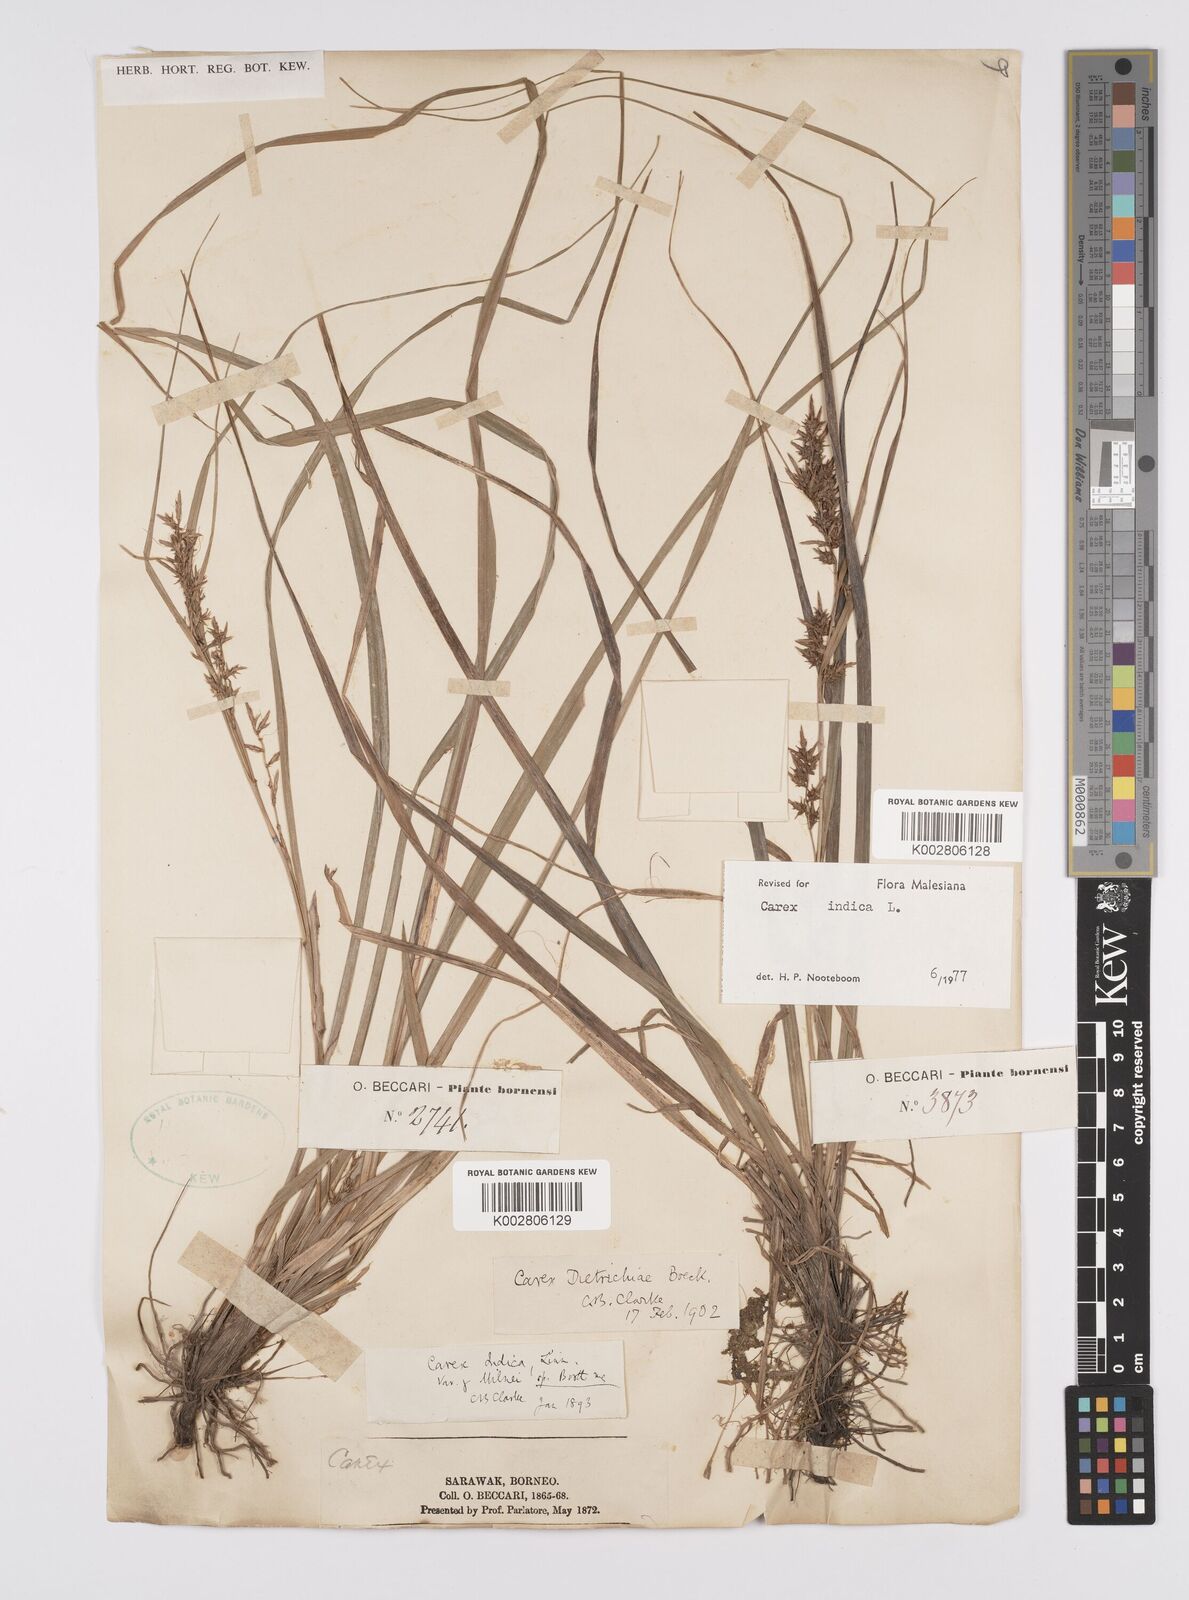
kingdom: Plantae
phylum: Tracheophyta
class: Liliopsida
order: Poales
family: Cyperaceae
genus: Carex
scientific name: Carex indica
